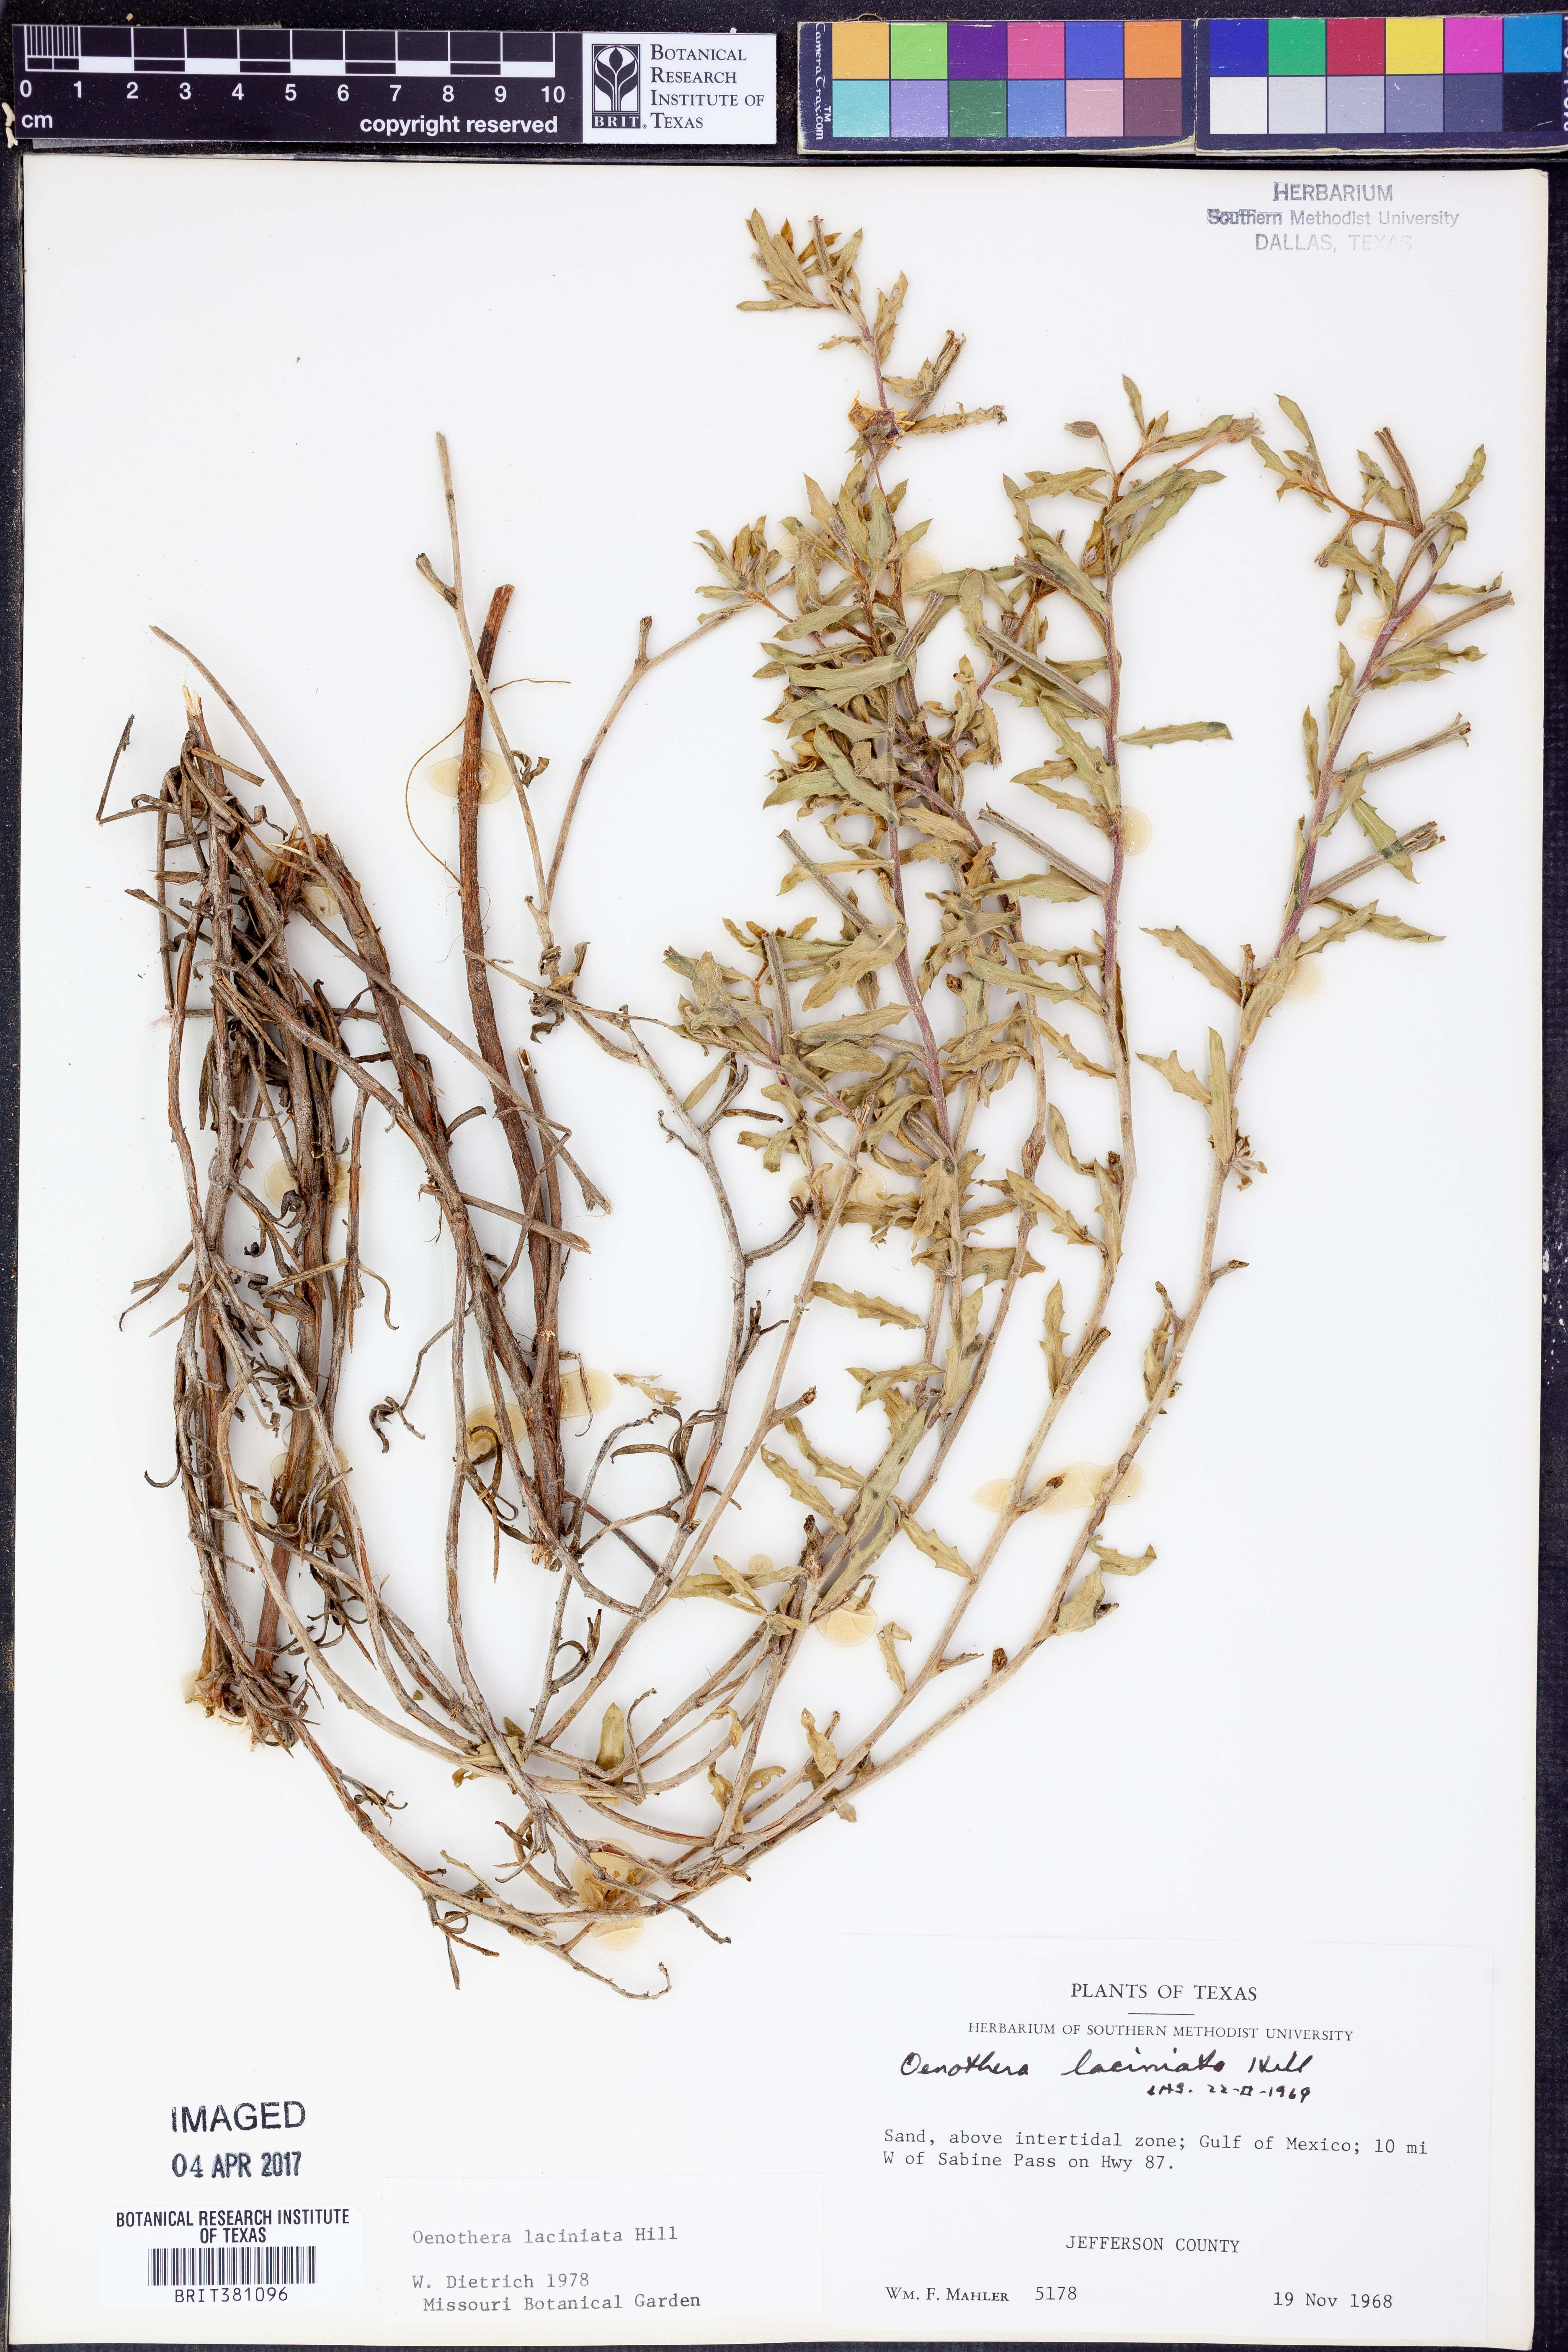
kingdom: Plantae
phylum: Tracheophyta
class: Magnoliopsida
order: Myrtales
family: Onagraceae
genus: Oenothera
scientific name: Oenothera laciniata
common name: Cut-leaved evening-primrose
